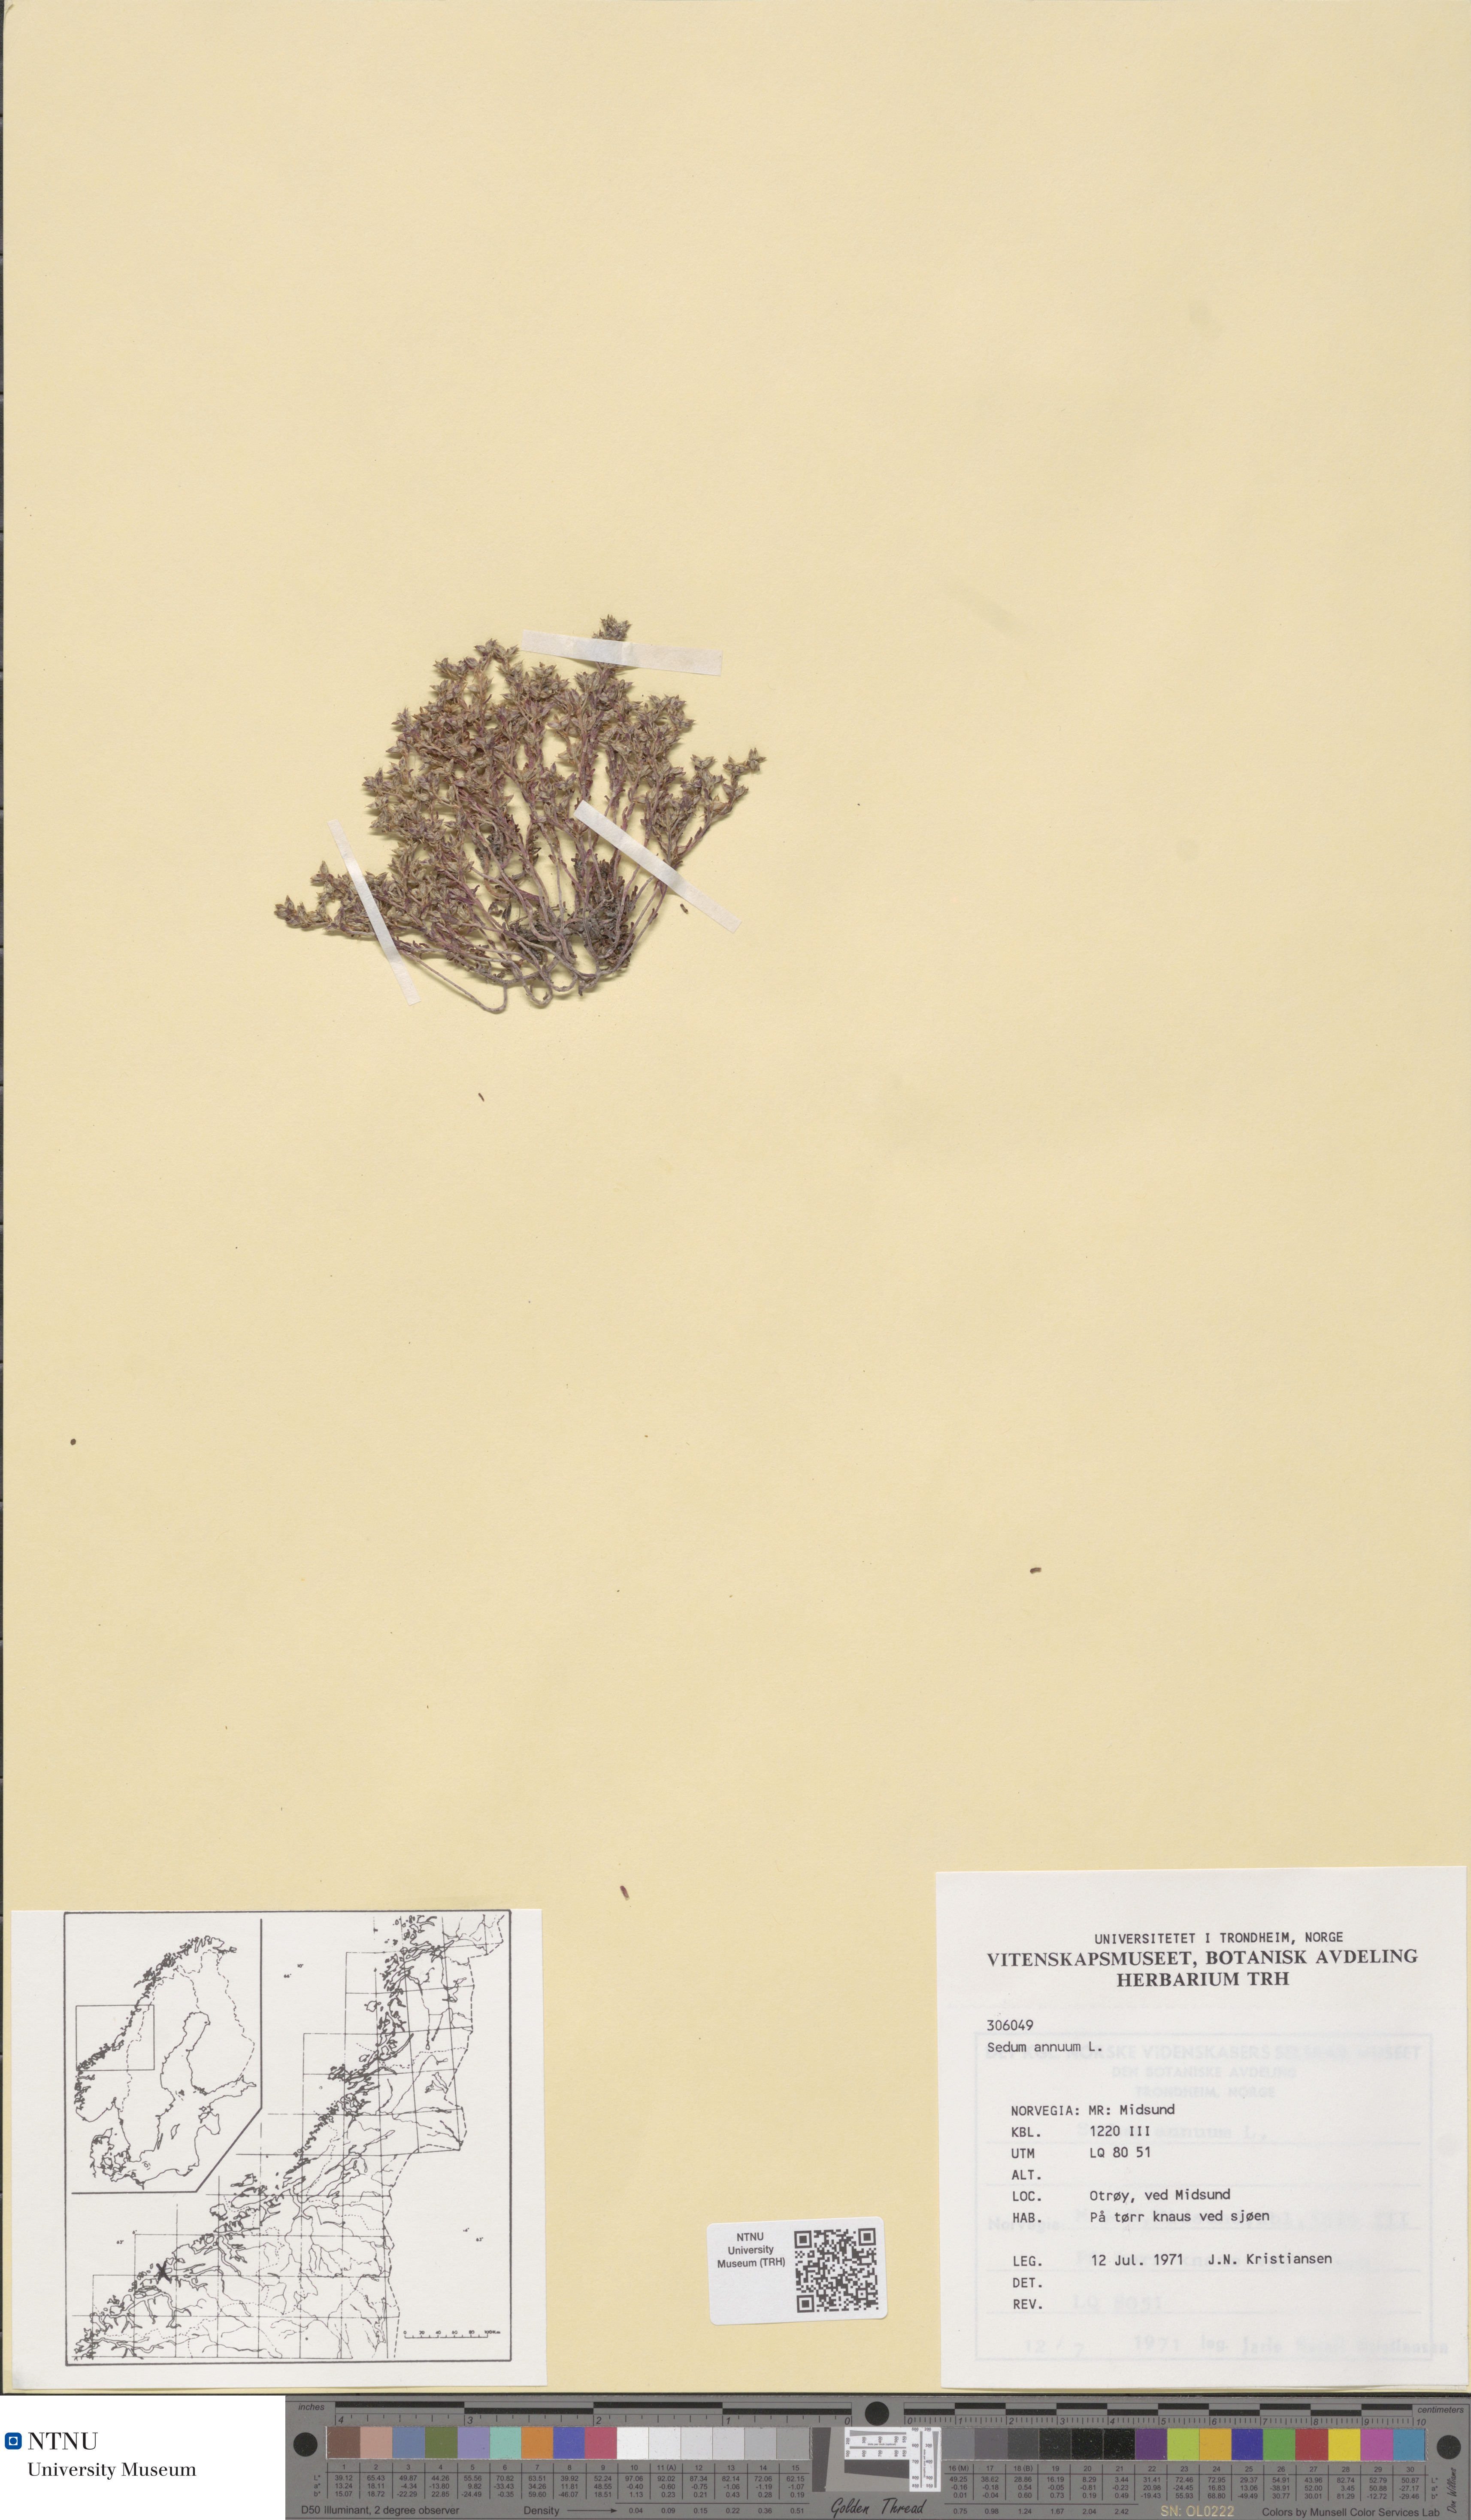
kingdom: Plantae
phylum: Tracheophyta
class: Magnoliopsida
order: Saxifragales
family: Crassulaceae
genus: Sedum
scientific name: Sedum annuum
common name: Annual stonecrop
